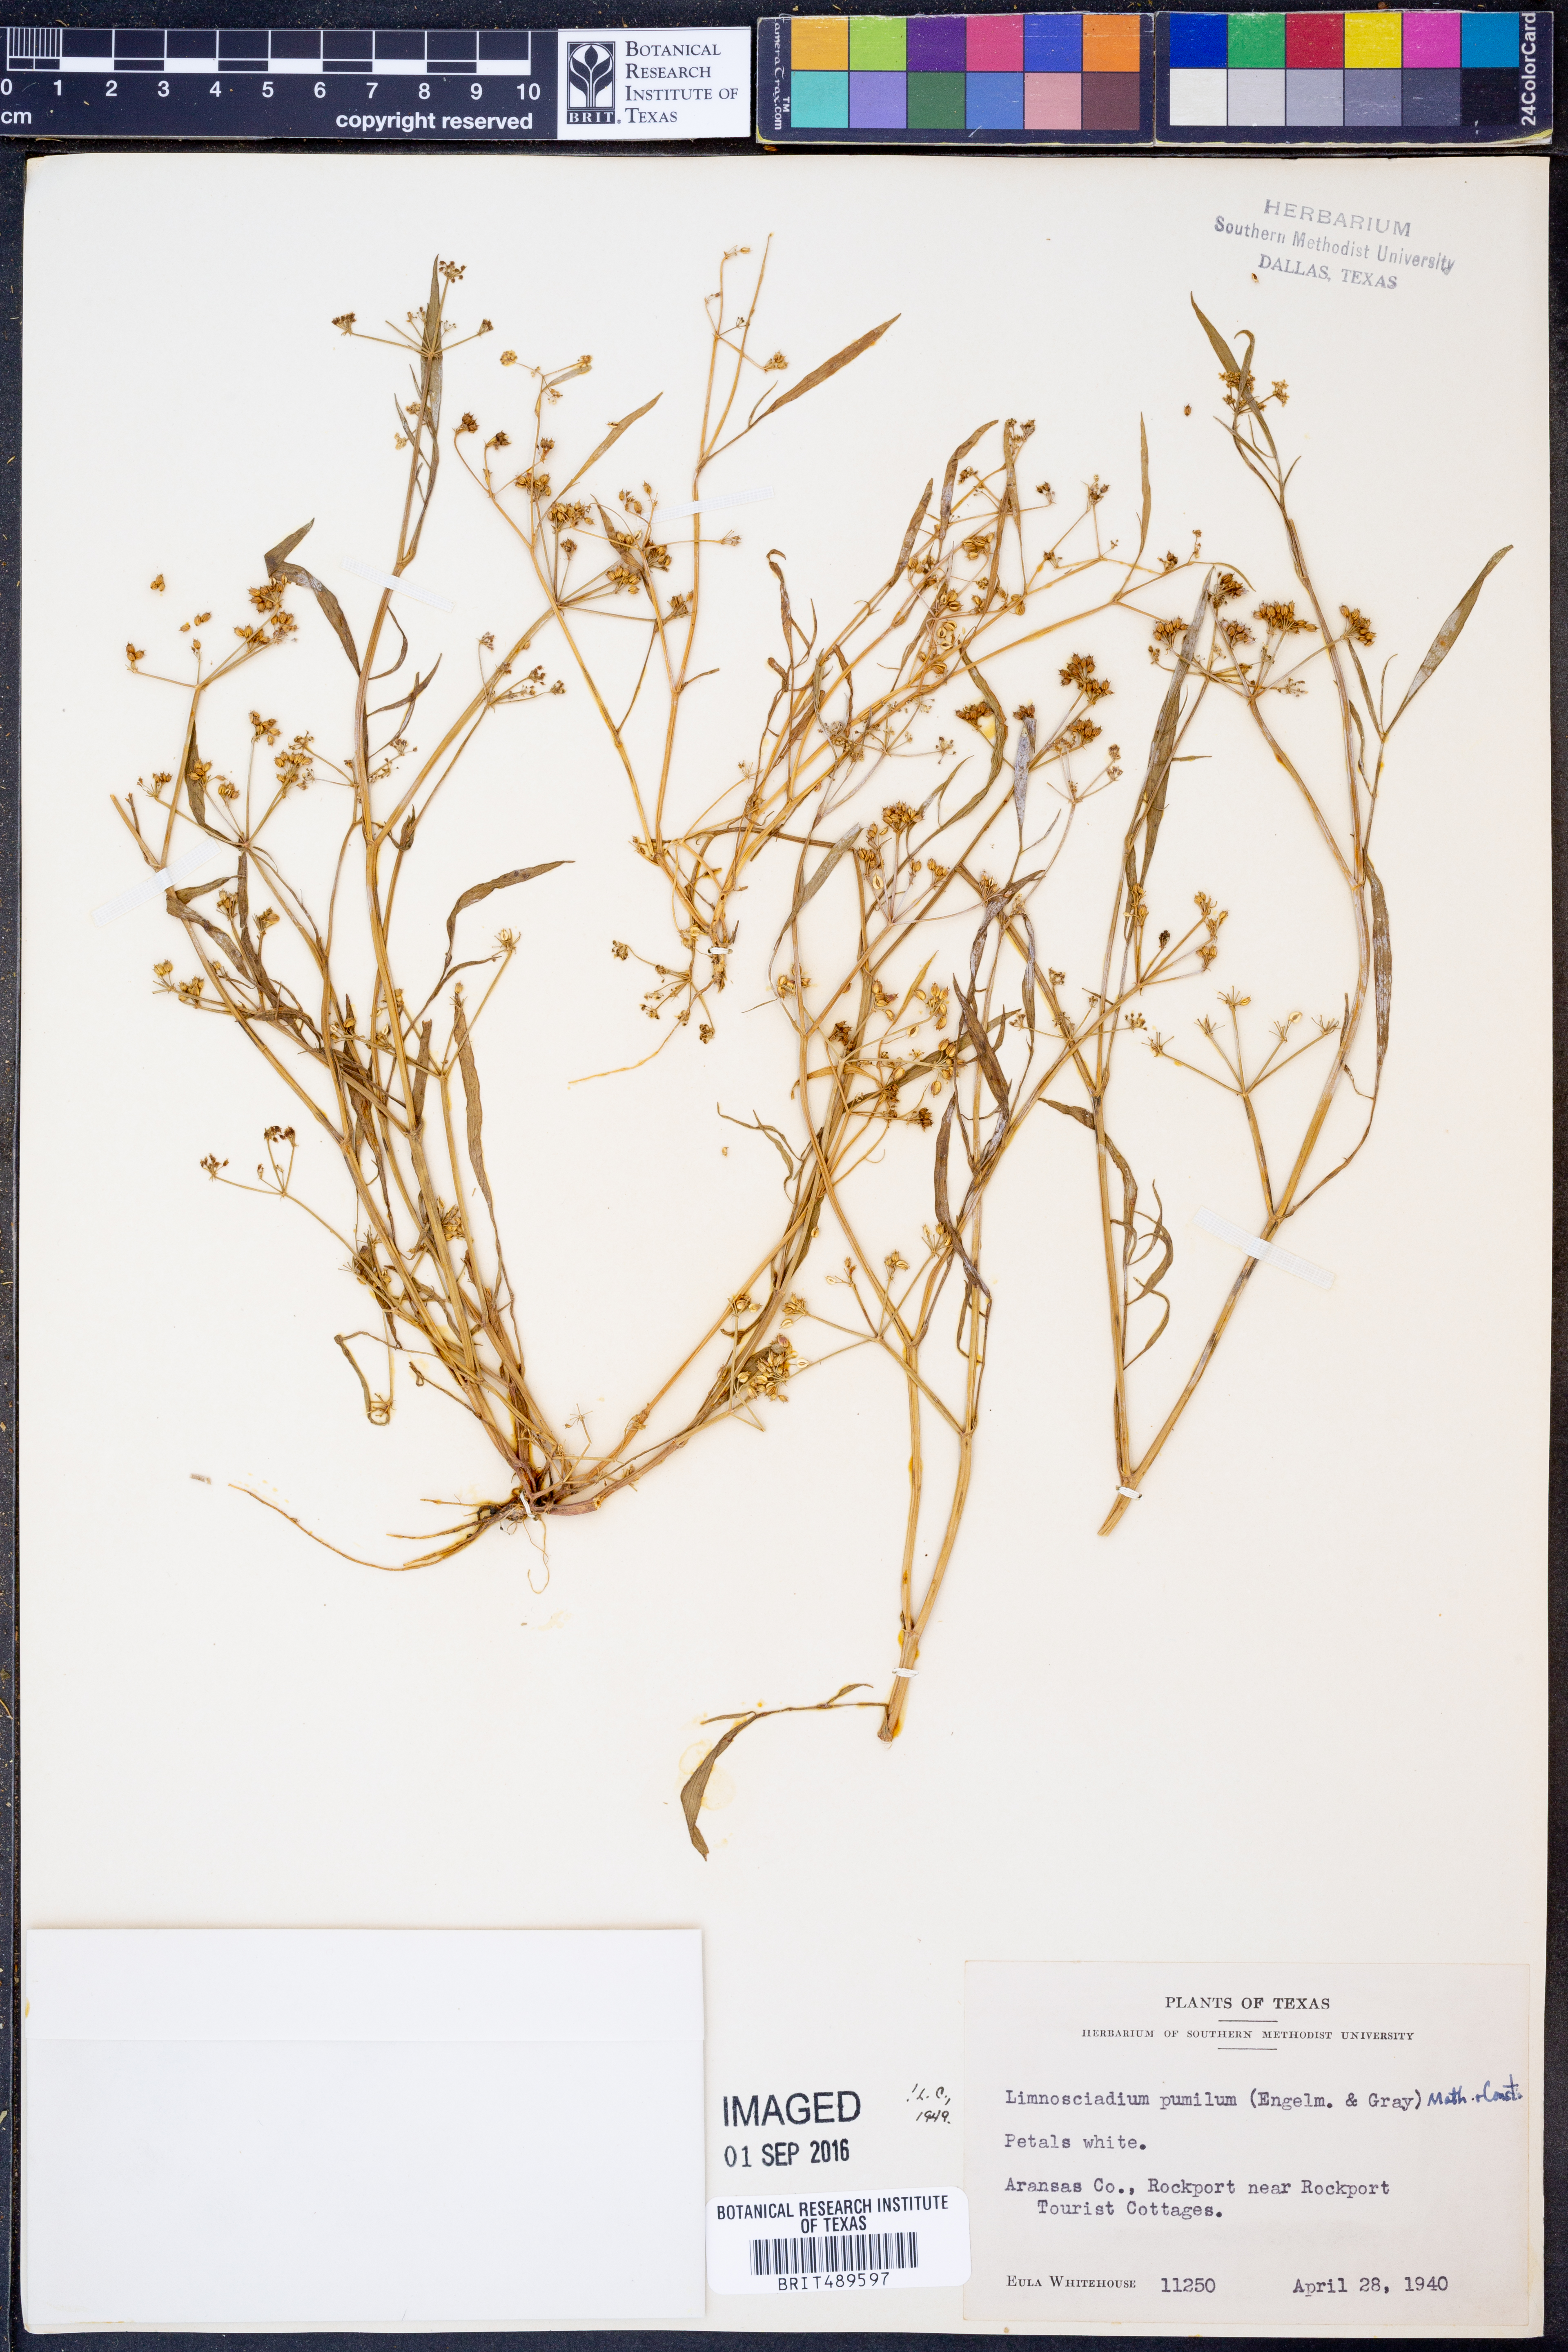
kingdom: Plantae
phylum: Tracheophyta
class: Magnoliopsida
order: Apiales
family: Apiaceae
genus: Limnosciadium
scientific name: Limnosciadium pinnatum
